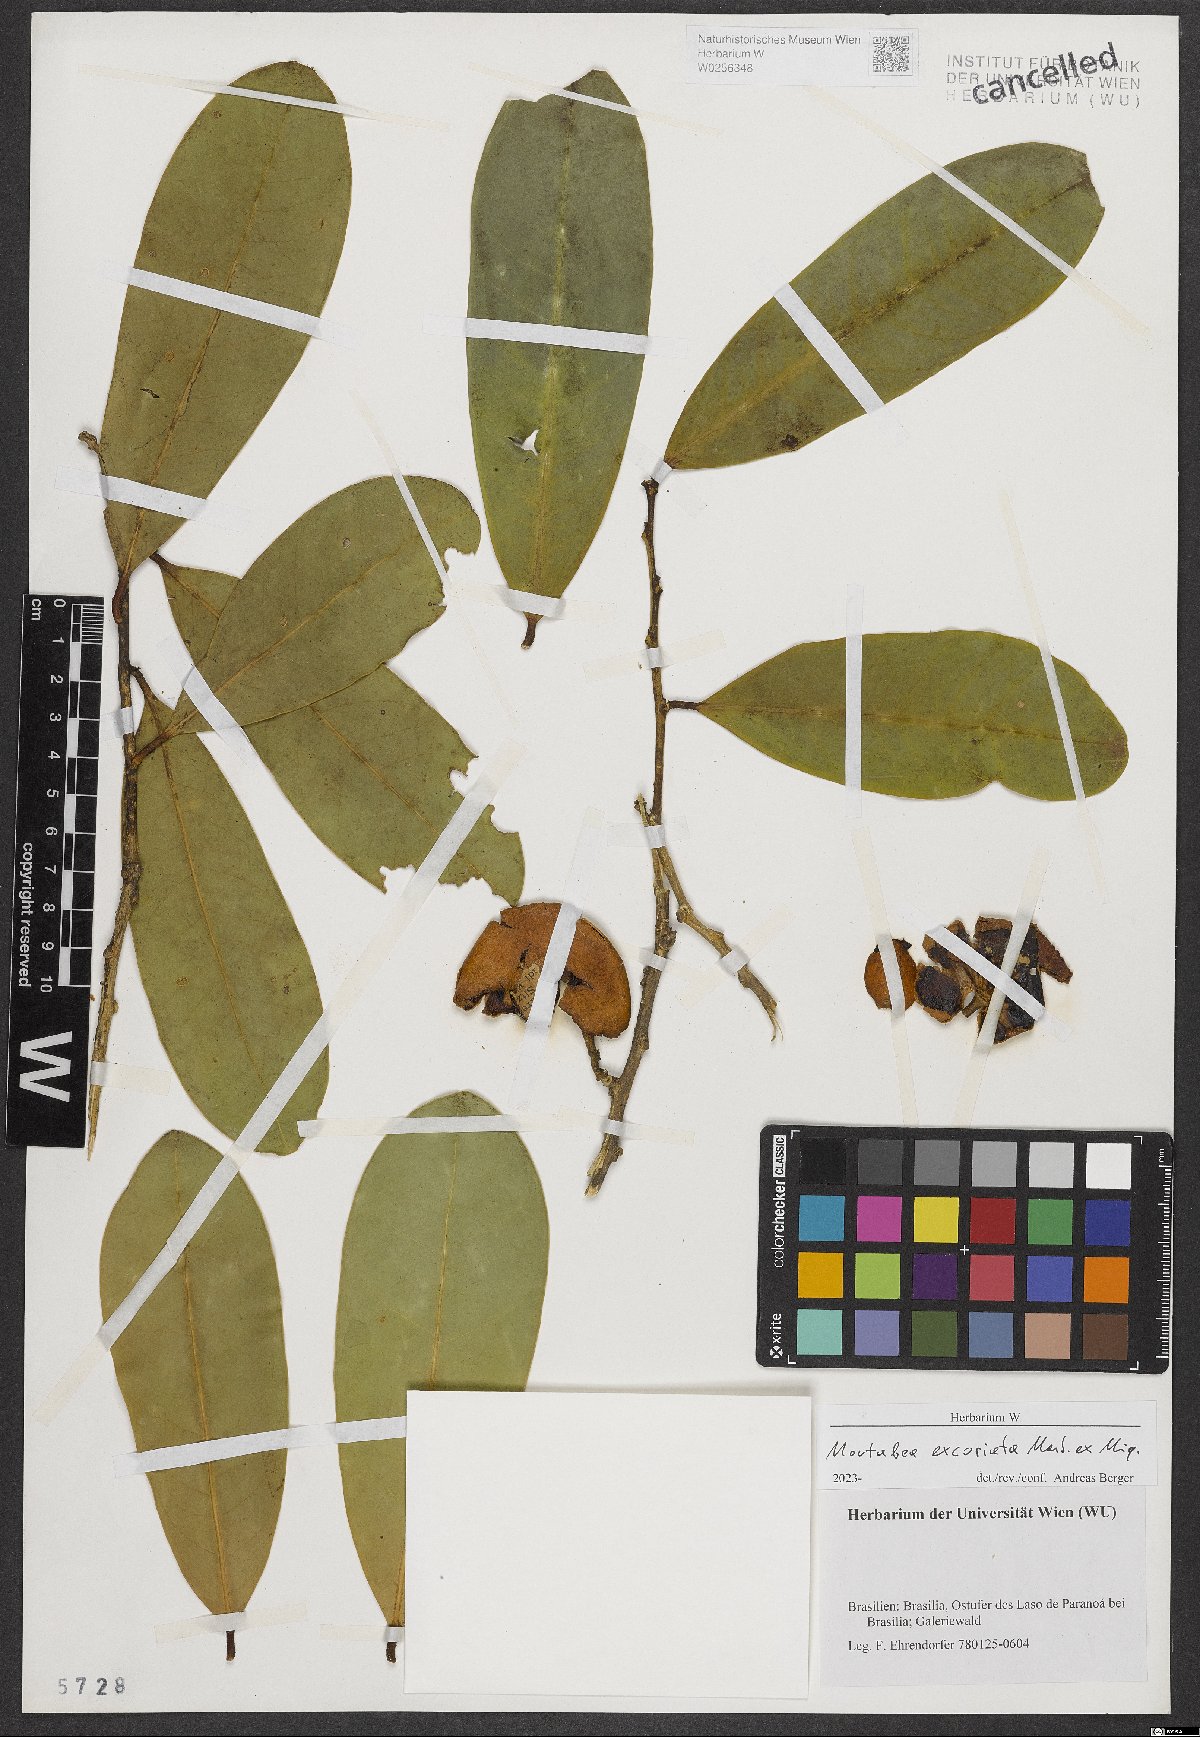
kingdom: Plantae
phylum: Tracheophyta
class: Magnoliopsida
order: Fabales
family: Polygalaceae
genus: Moutabea
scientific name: Moutabea excoriata
